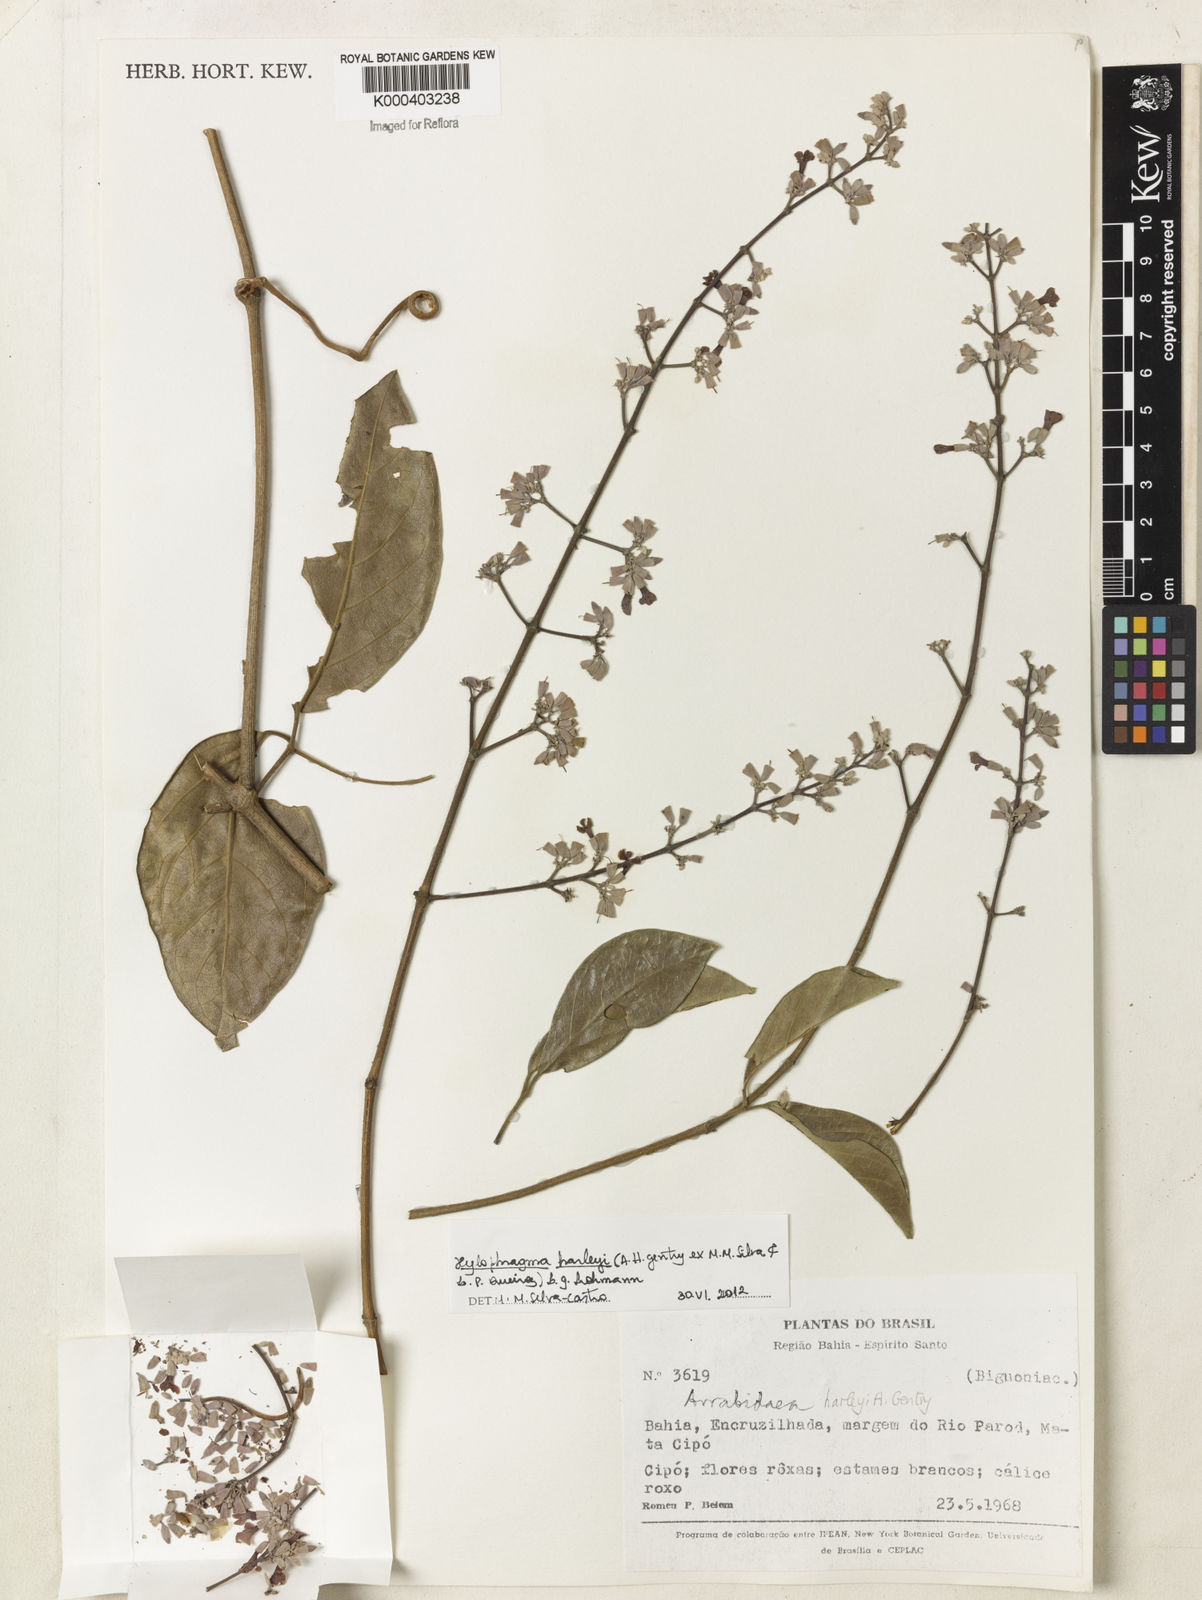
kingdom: Plantae
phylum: Tracheophyta
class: Magnoliopsida
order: Lamiales
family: Bignoniaceae
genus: Xylophragma
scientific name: Xylophragma harleyi
